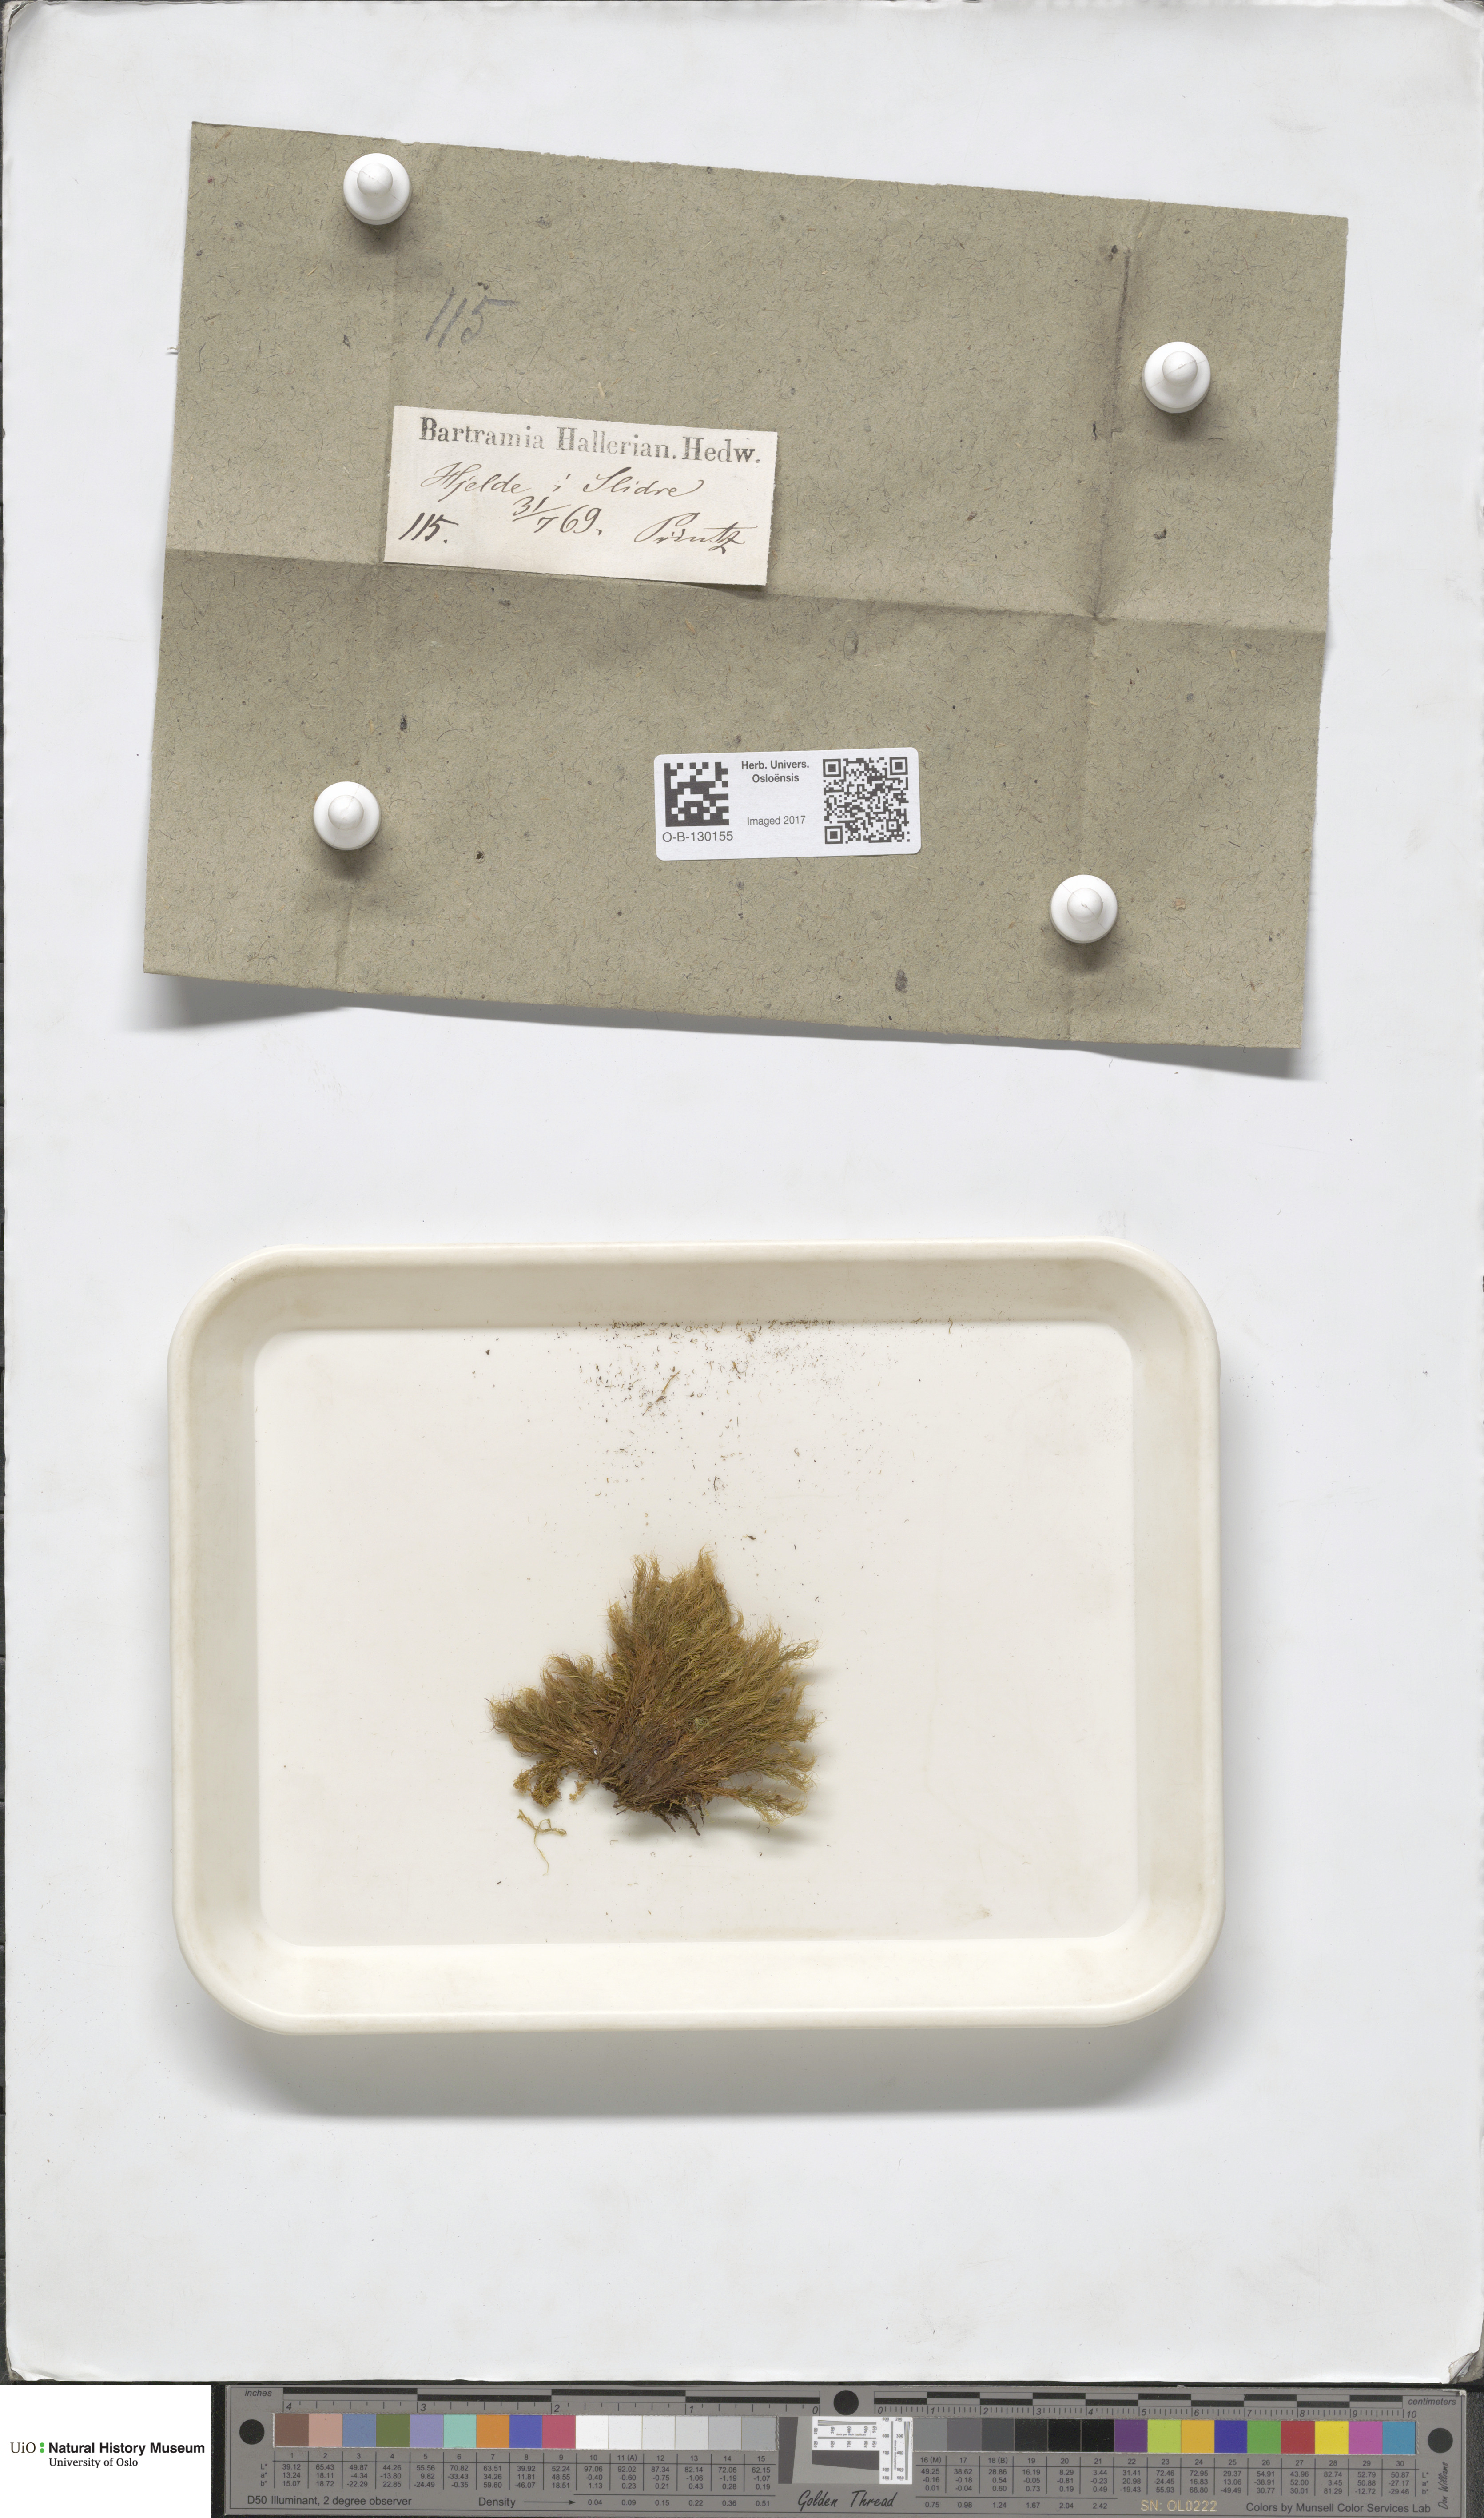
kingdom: Plantae
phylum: Bryophyta
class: Bryopsida
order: Bartramiales
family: Bartramiaceae
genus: Bartramia
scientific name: Bartramia halleriana
